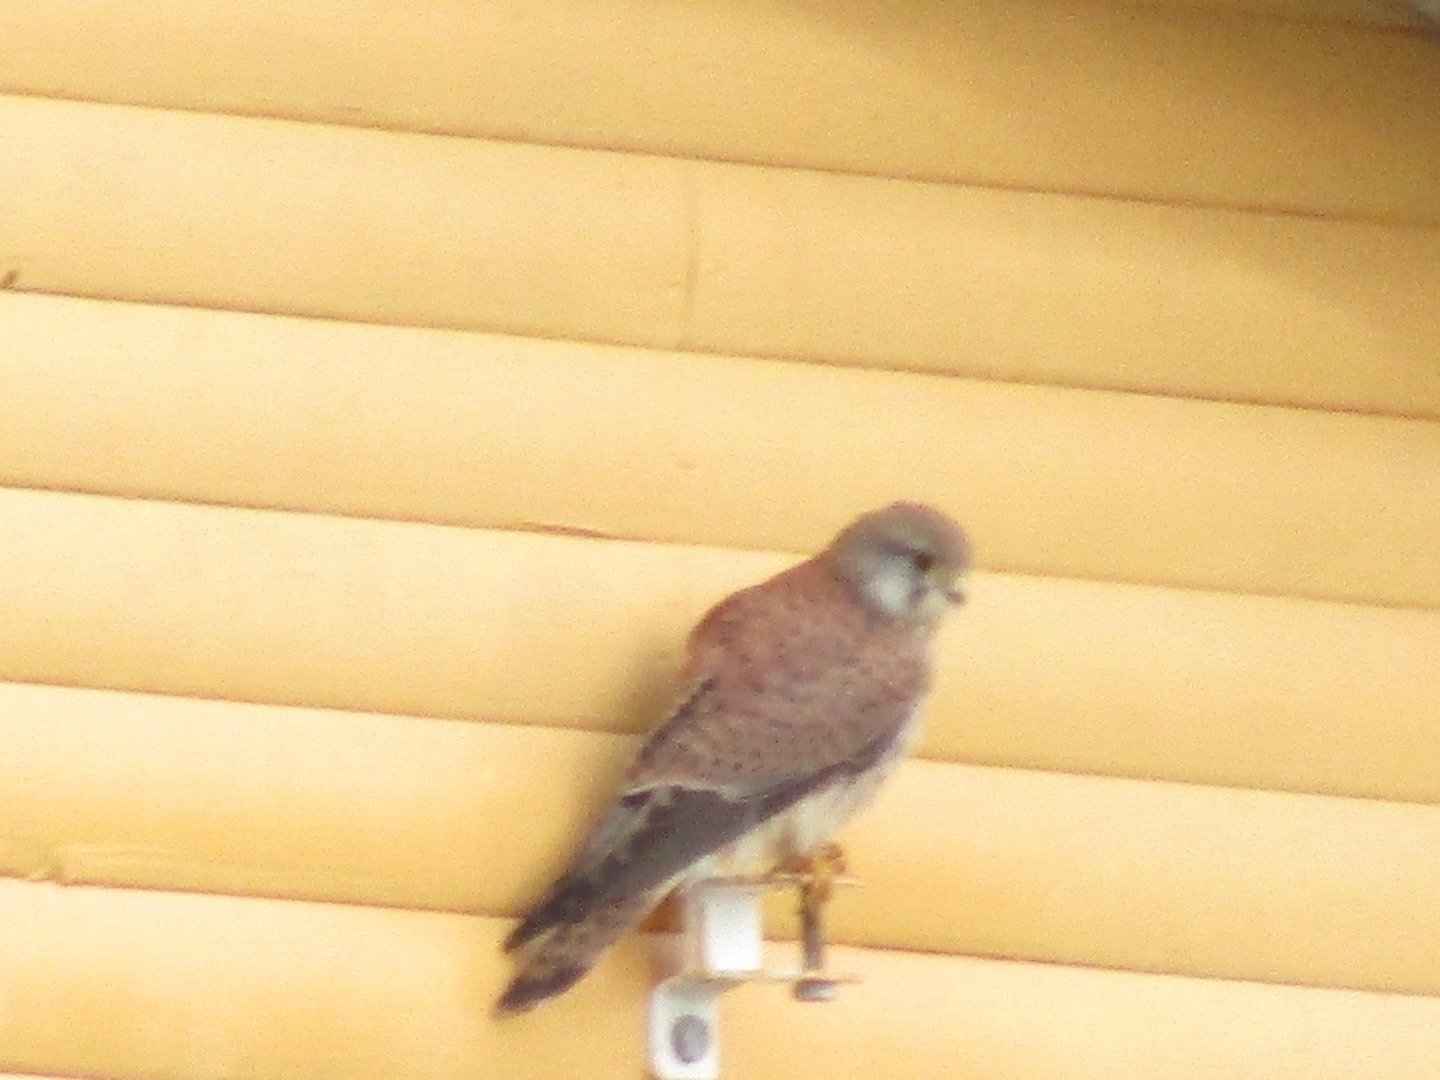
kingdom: Animalia
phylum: Chordata
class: Aves
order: Falconiformes
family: Falconidae
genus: Falco
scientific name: Falco tinnunculus
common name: Tårnfalk
